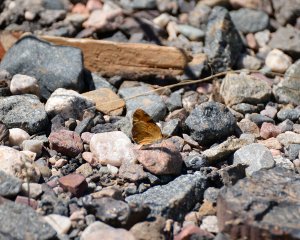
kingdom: Animalia
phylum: Arthropoda
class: Insecta
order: Lepidoptera
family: Nymphalidae
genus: Phyciodes
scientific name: Phyciodes tharos
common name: Northern Crescent
